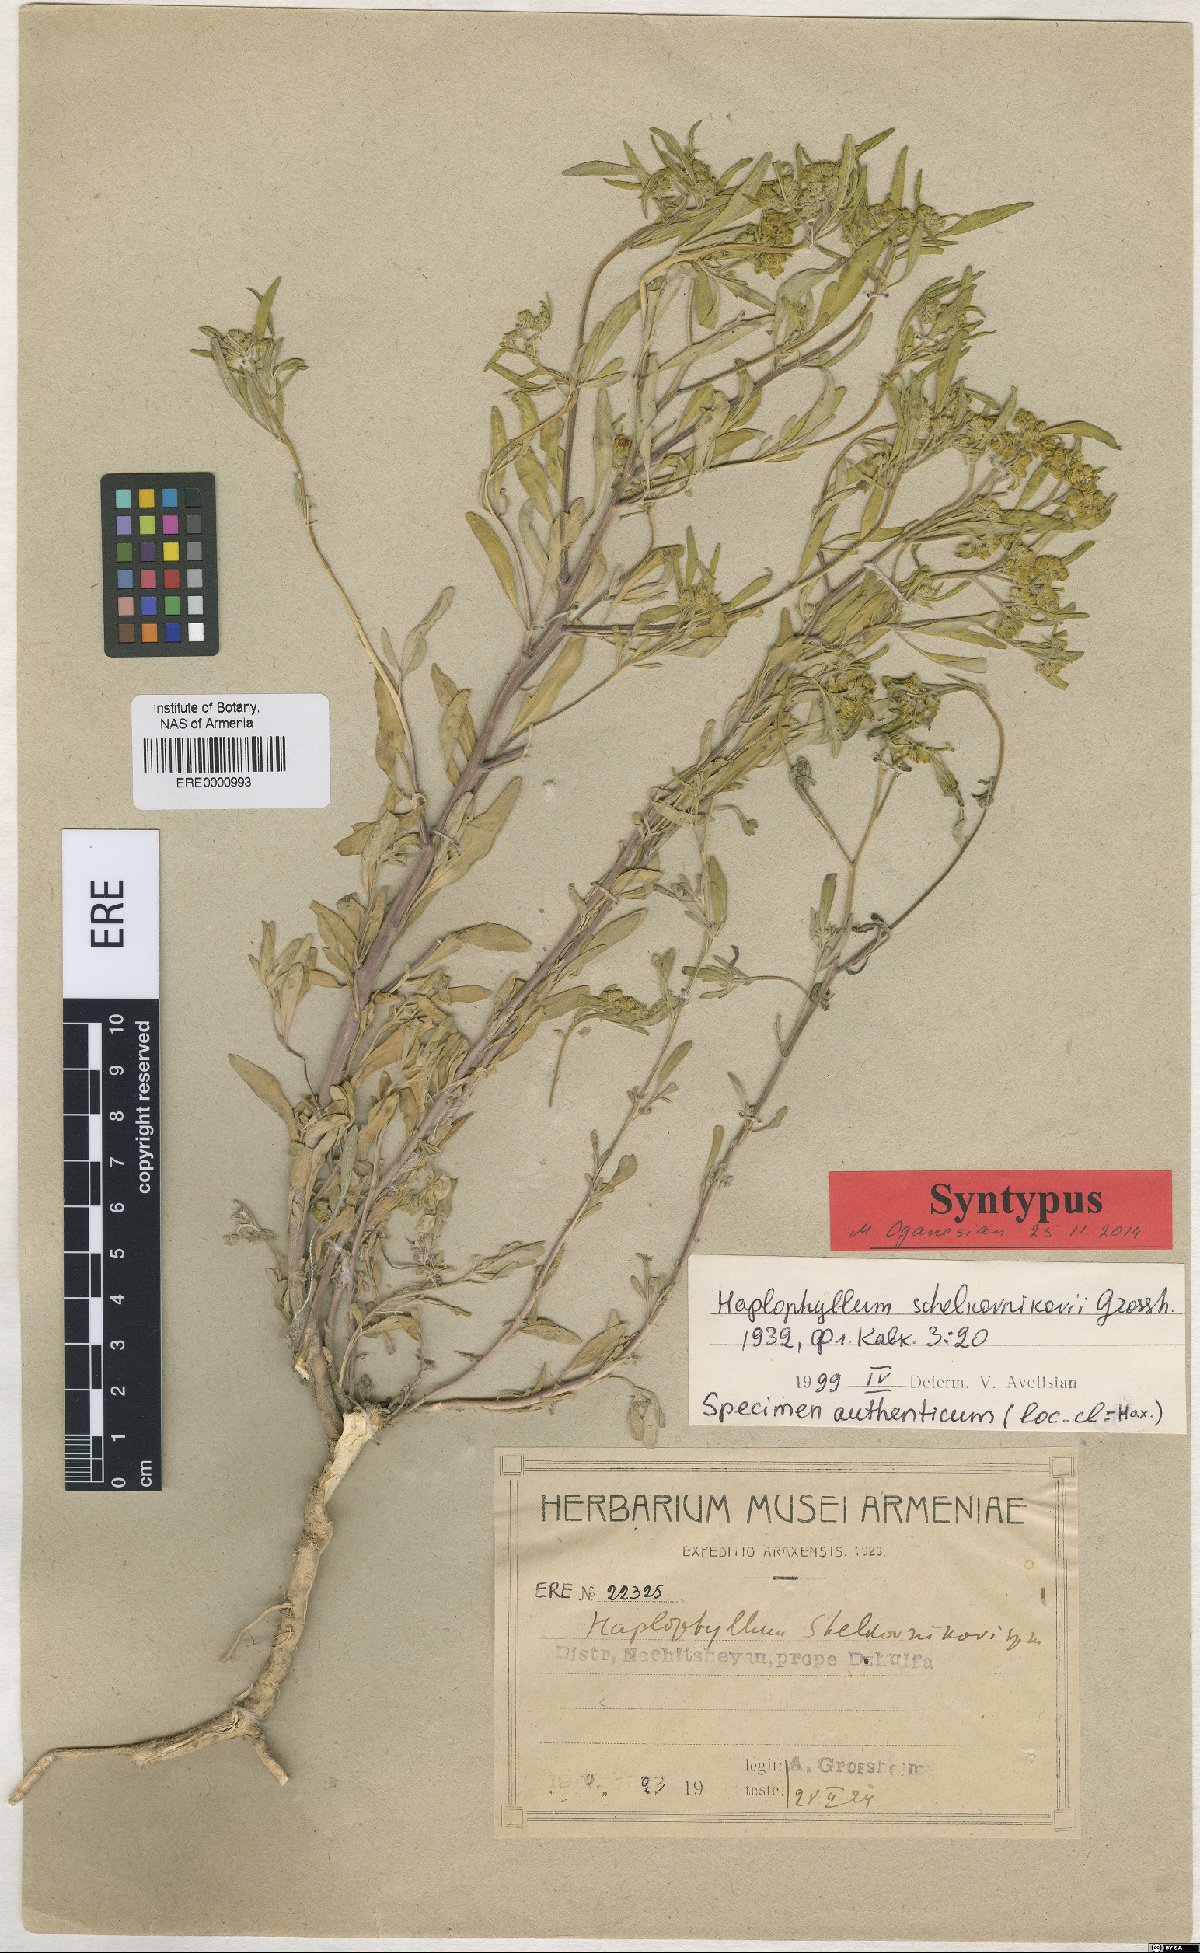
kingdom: Plantae
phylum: Tracheophyta
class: Magnoliopsida
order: Sapindales
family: Rutaceae
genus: Haplophyllum
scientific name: Haplophyllum shelkovnikovii
